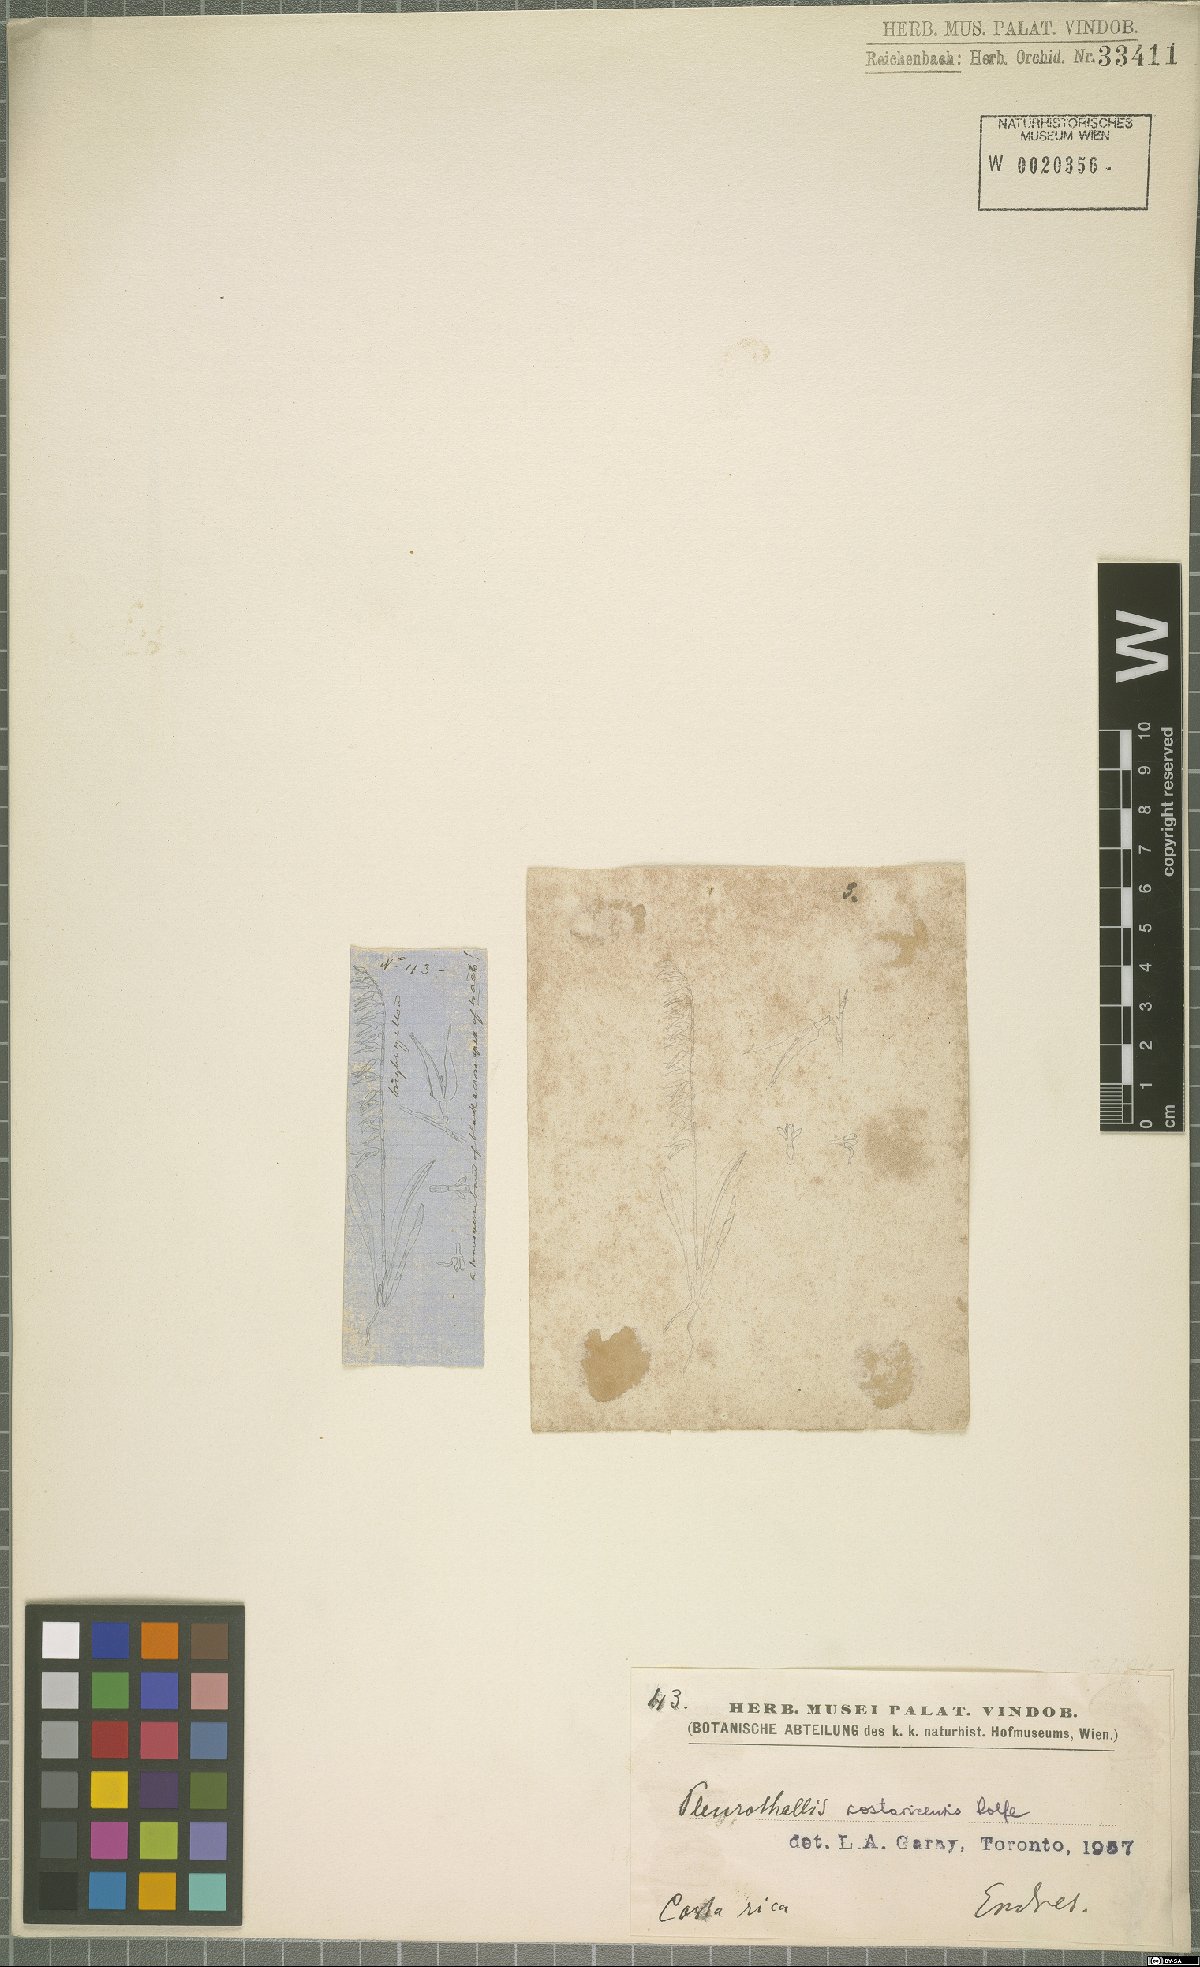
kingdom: Plantae
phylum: Tracheophyta
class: Liliopsida
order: Asparagales
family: Orchidaceae
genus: Specklinia
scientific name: Specklinia costaricensis
